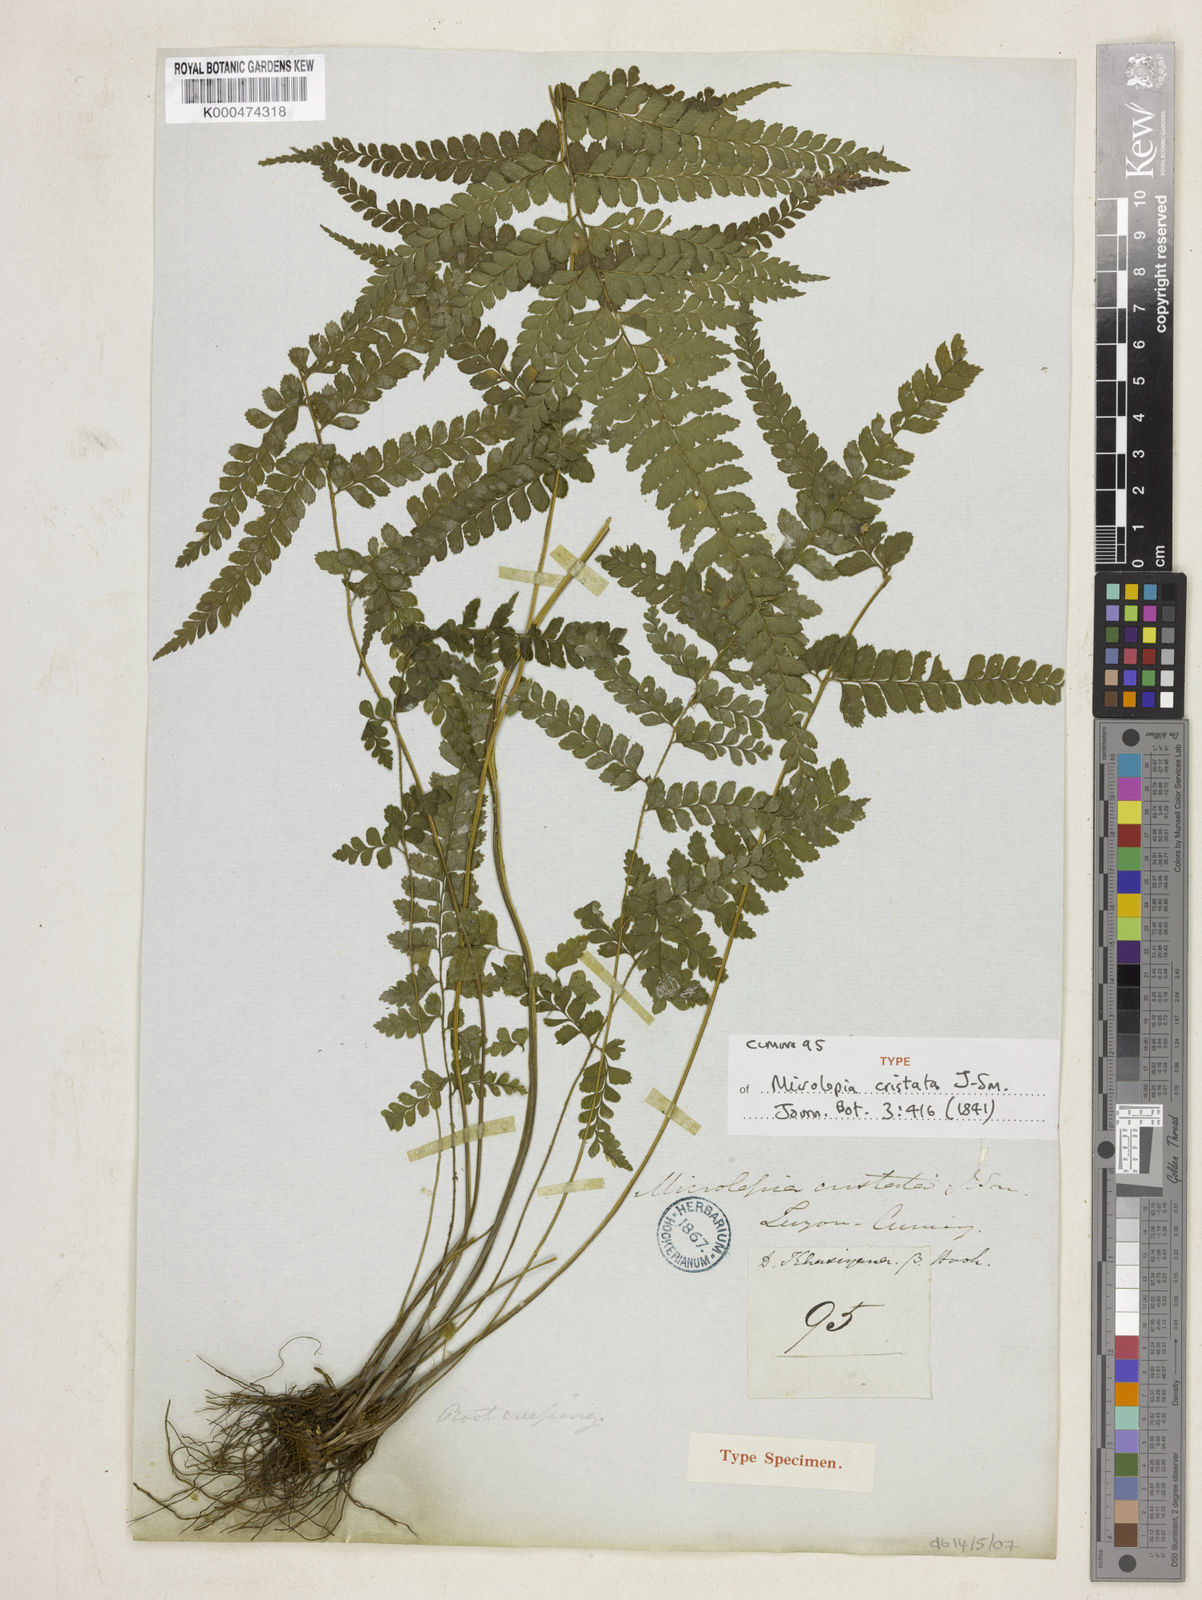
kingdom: Plantae
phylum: Tracheophyta
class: Polypodiopsida
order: Polypodiales
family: Dennstaedtiaceae
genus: Microlepia
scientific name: Microlepia strigosa
